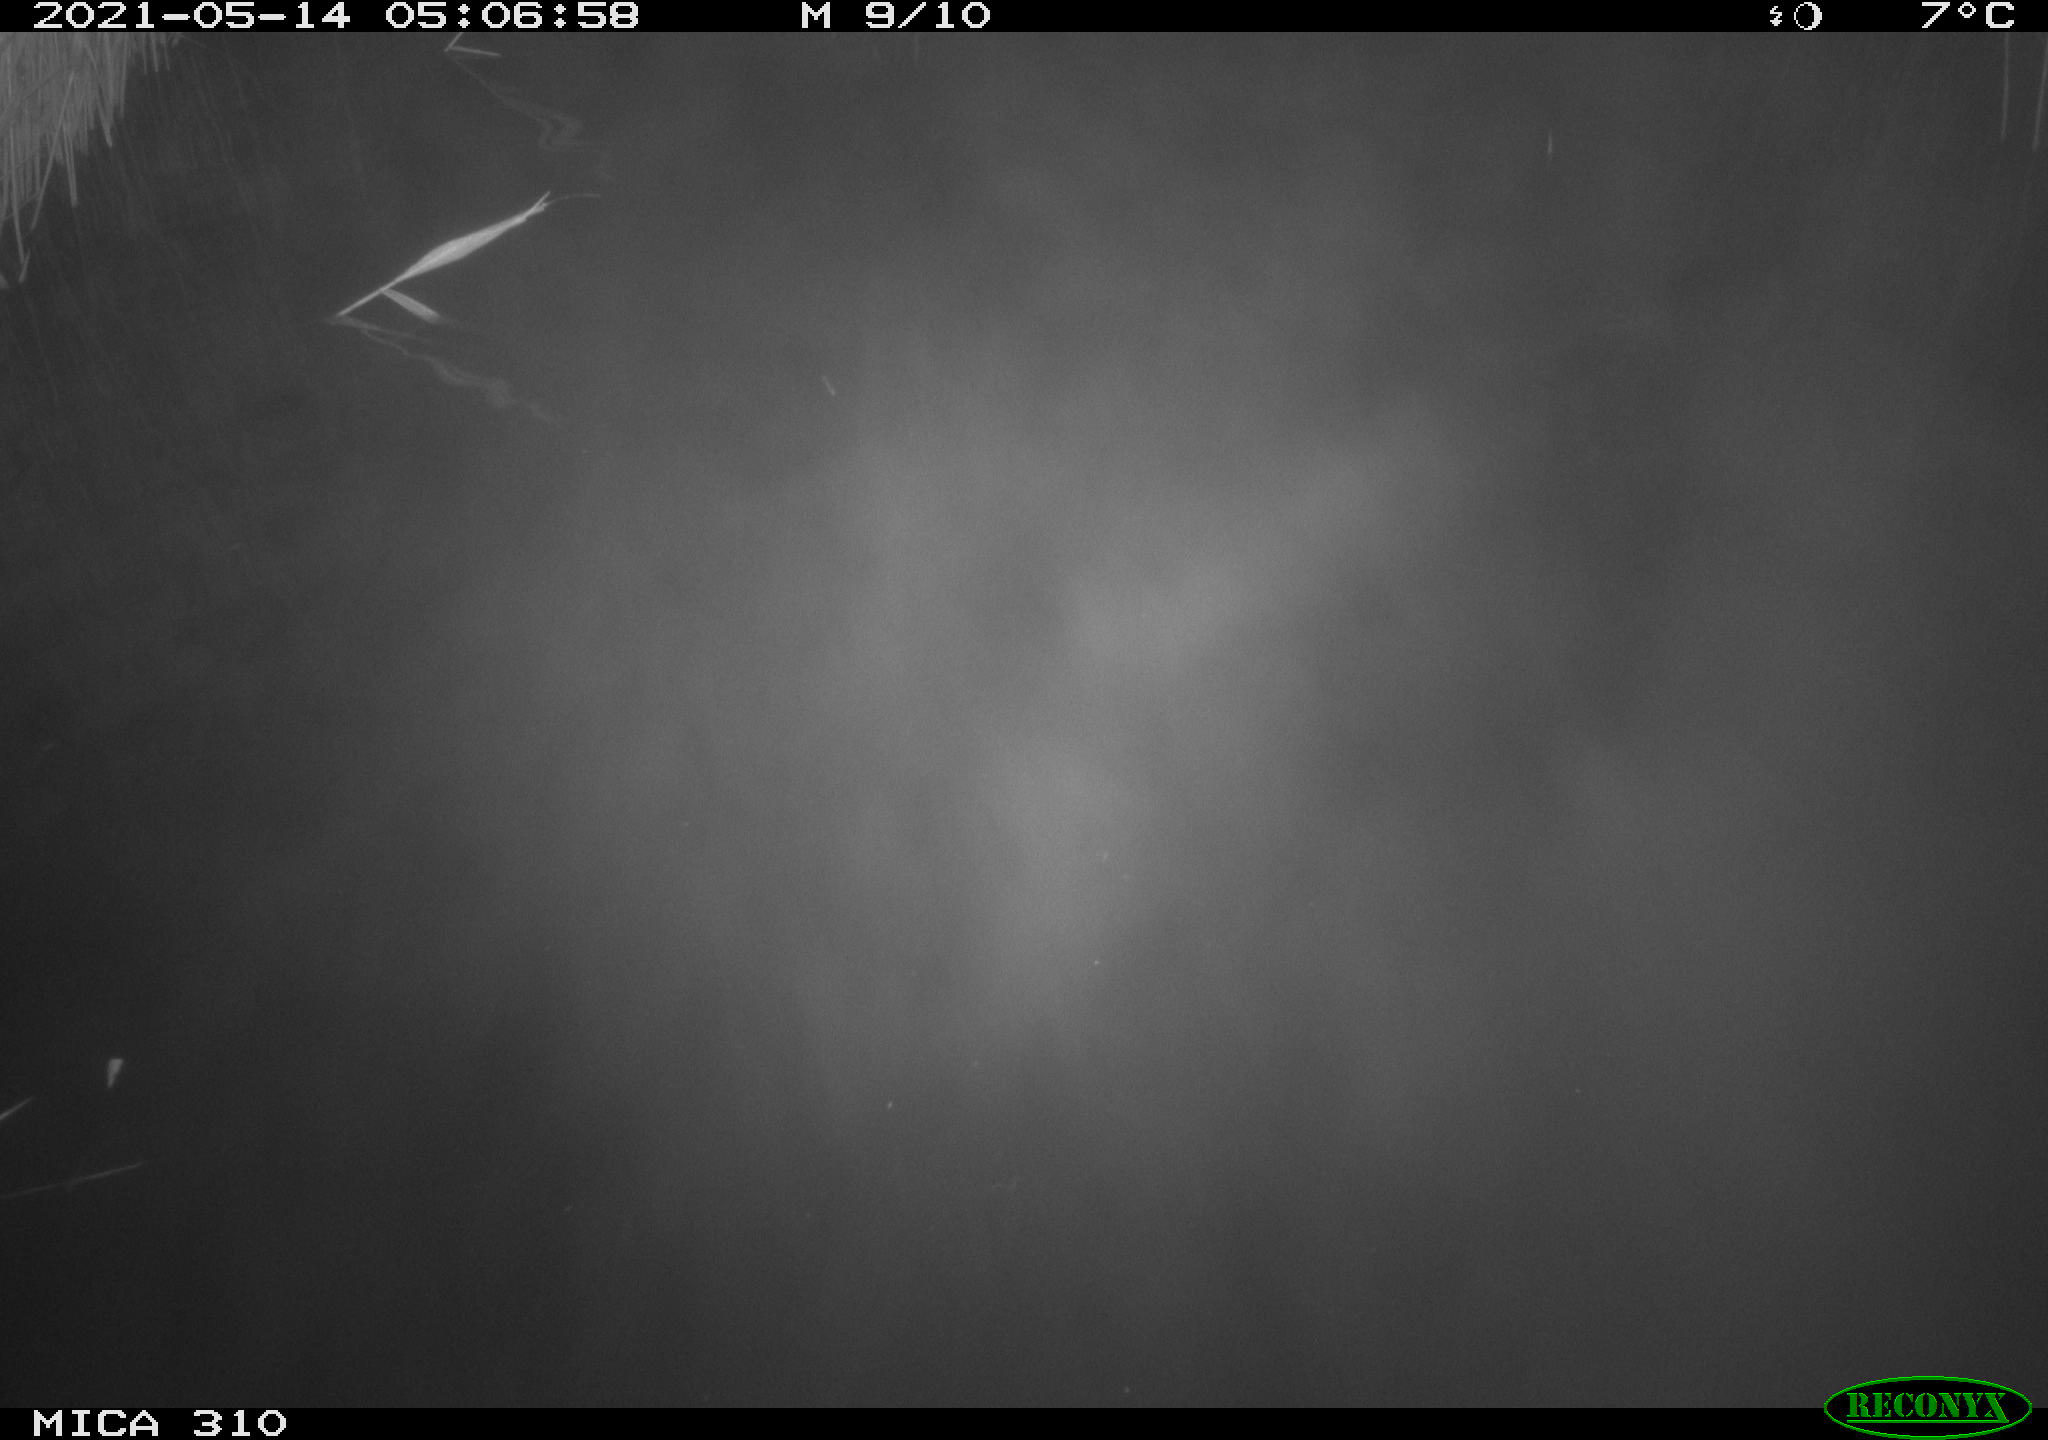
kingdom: Animalia
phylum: Chordata
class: Aves
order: Anseriformes
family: Anatidae
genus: Anas
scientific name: Anas platyrhynchos
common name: Mallard
